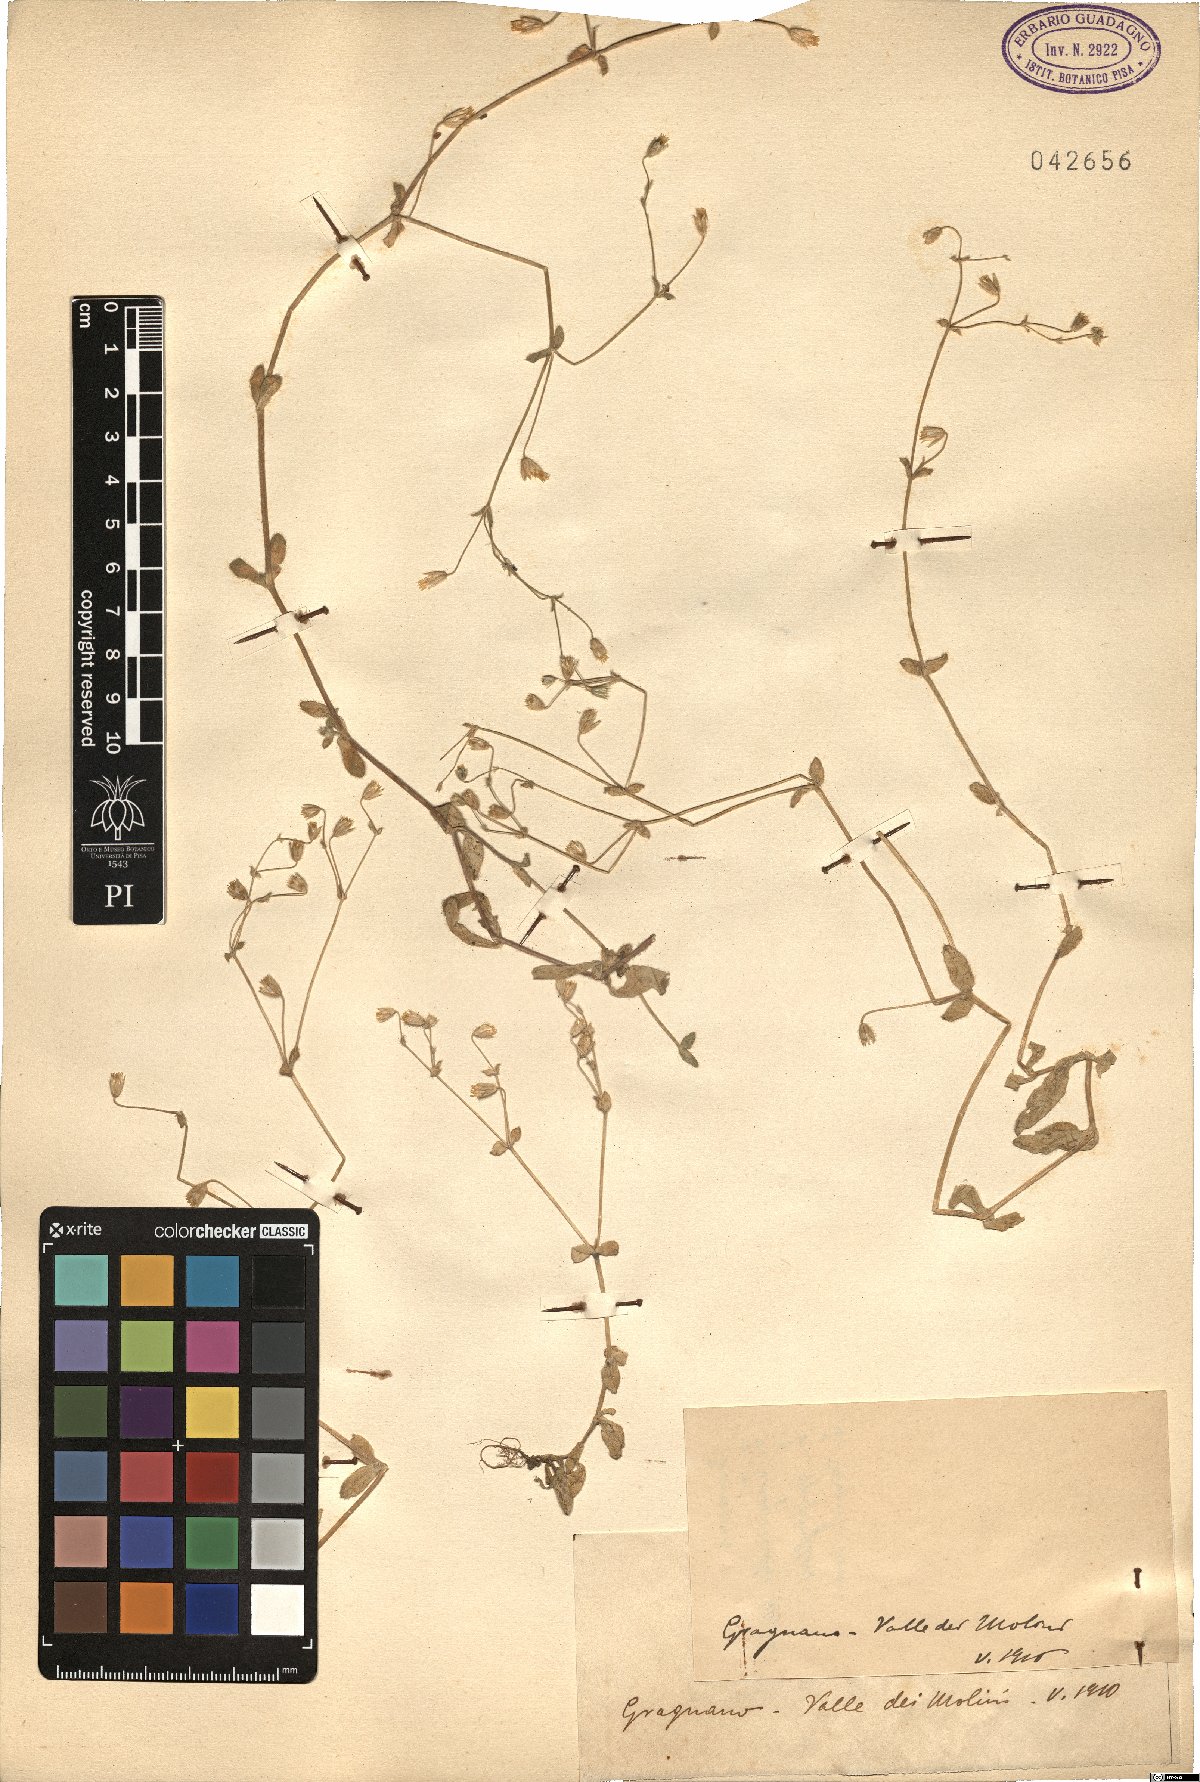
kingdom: Plantae
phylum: Tracheophyta
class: Magnoliopsida
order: Caryophyllales
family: Caryophyllaceae
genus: Cerastium
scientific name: Cerastium
